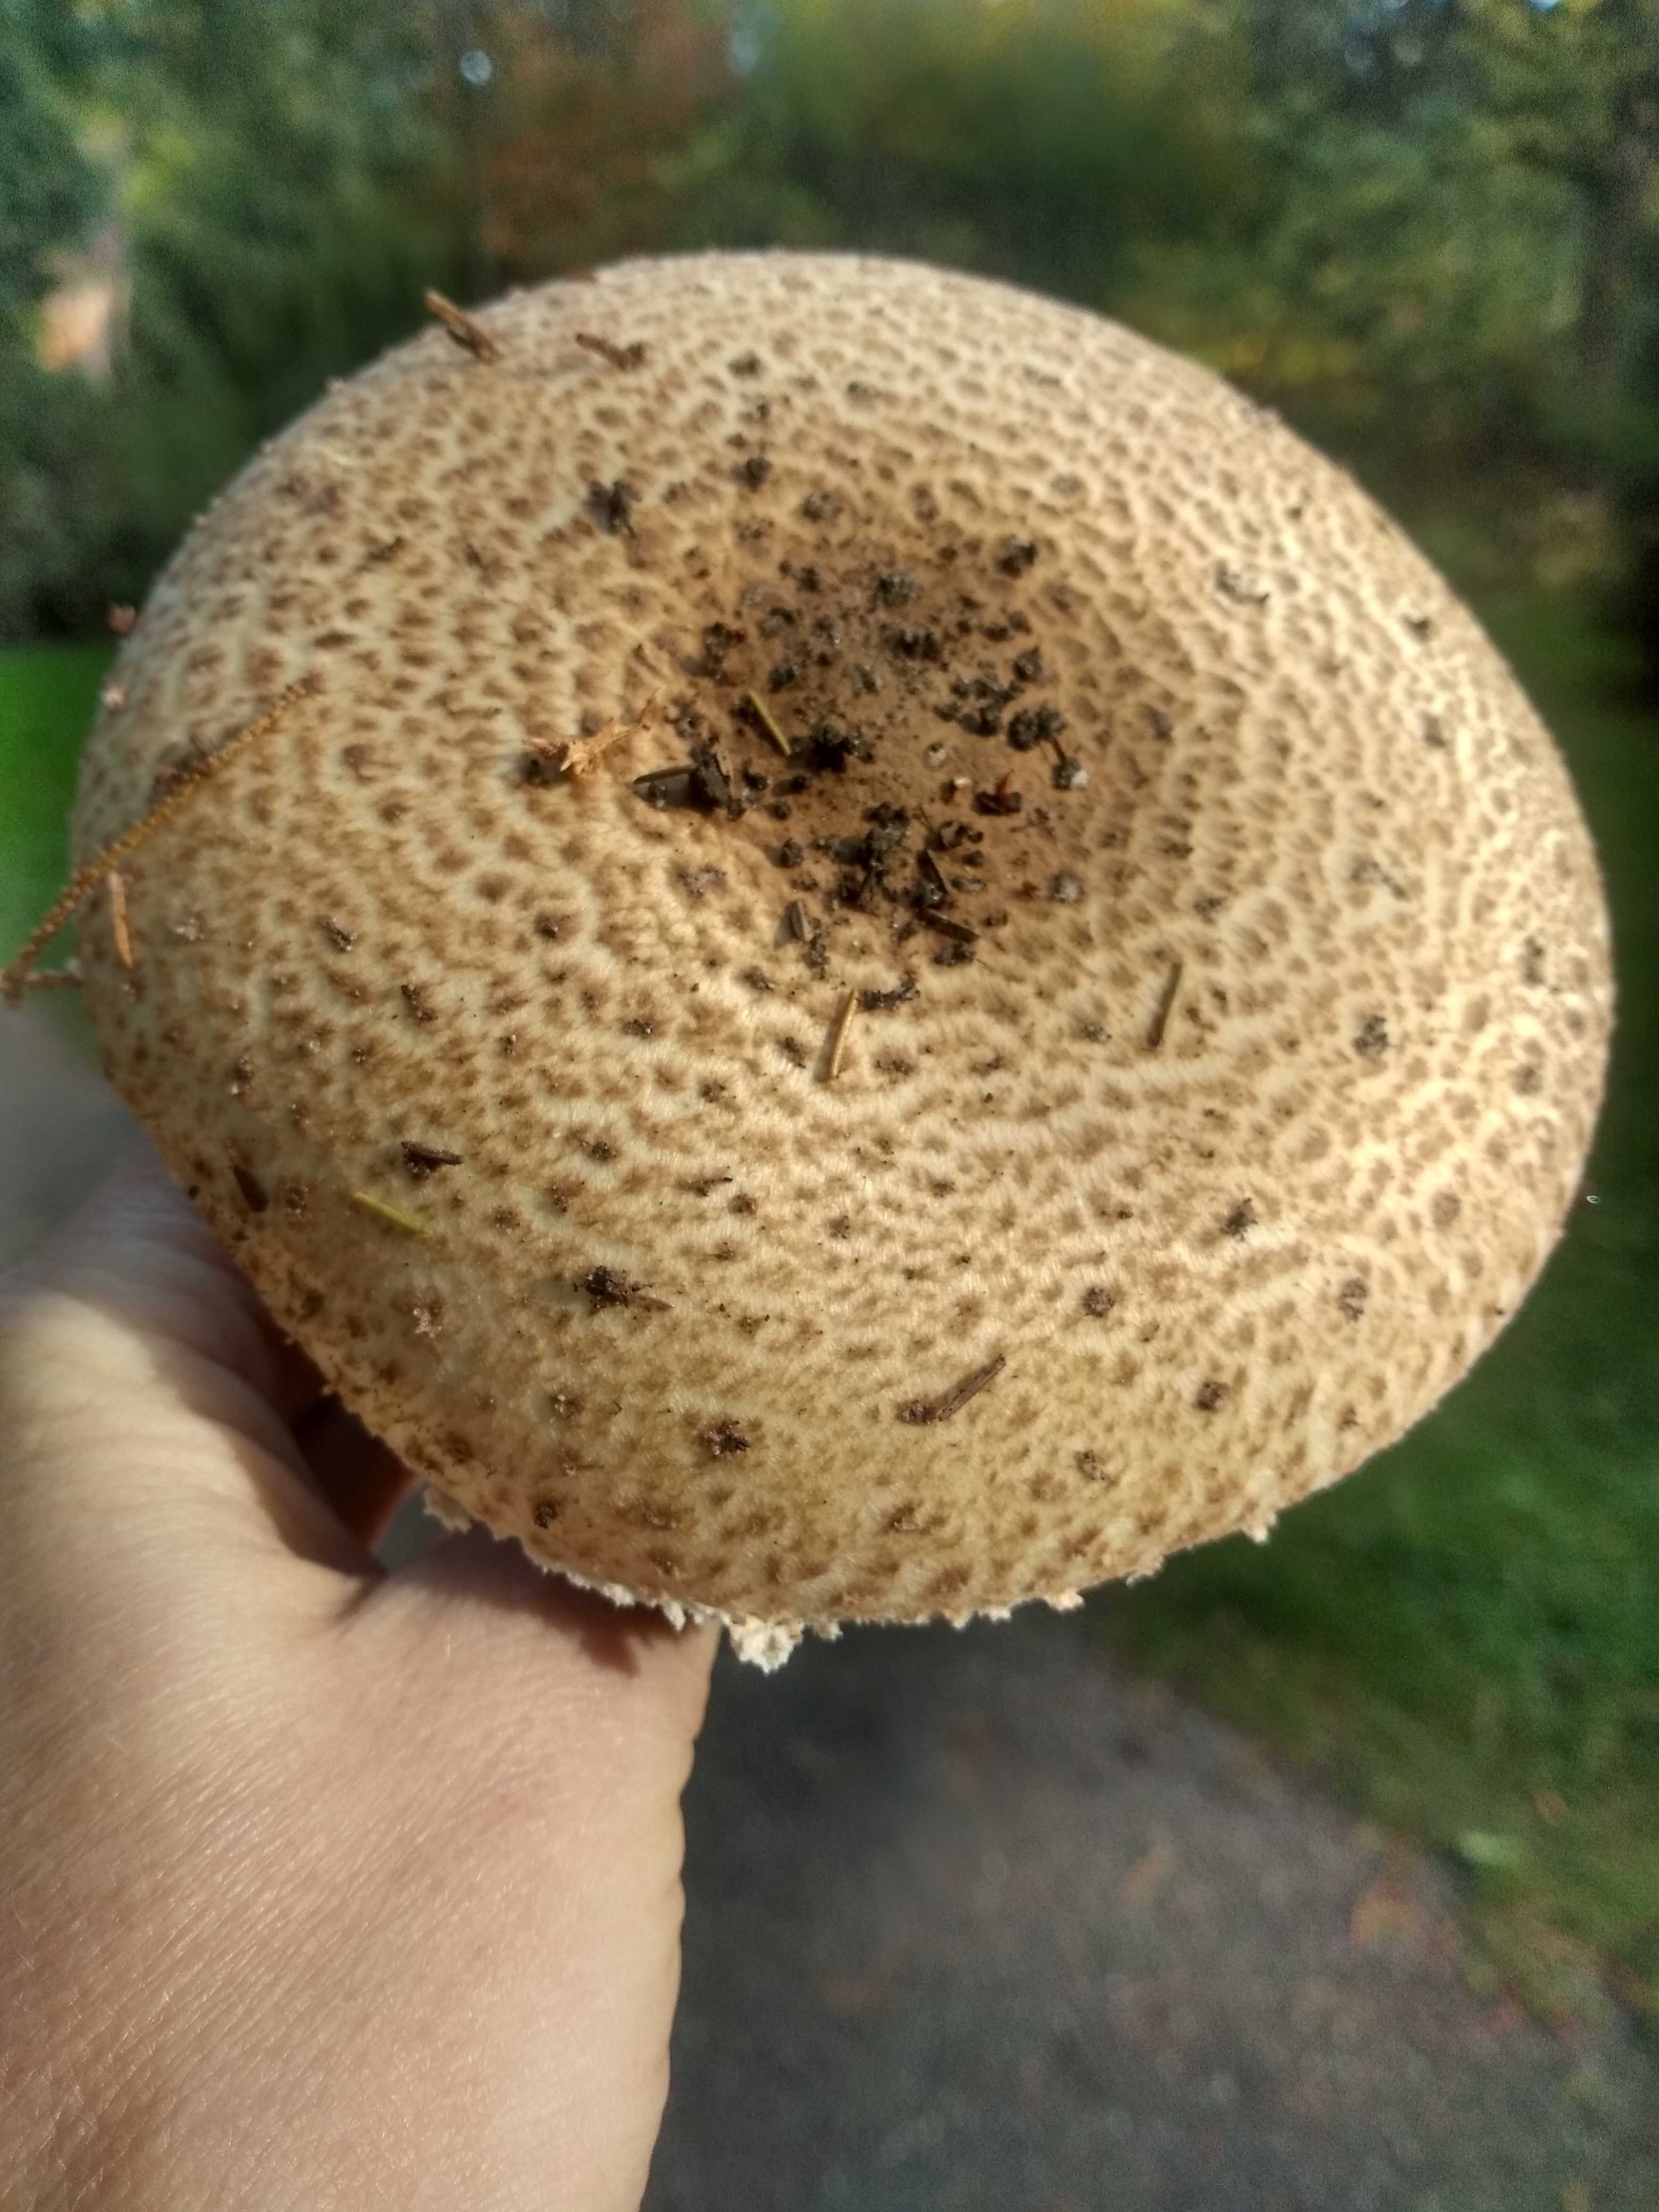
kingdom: Fungi
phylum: Basidiomycota
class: Agaricomycetes
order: Agaricales
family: Agaricaceae
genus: Agaricus
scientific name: Agaricus augustus
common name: prægtig champignon
